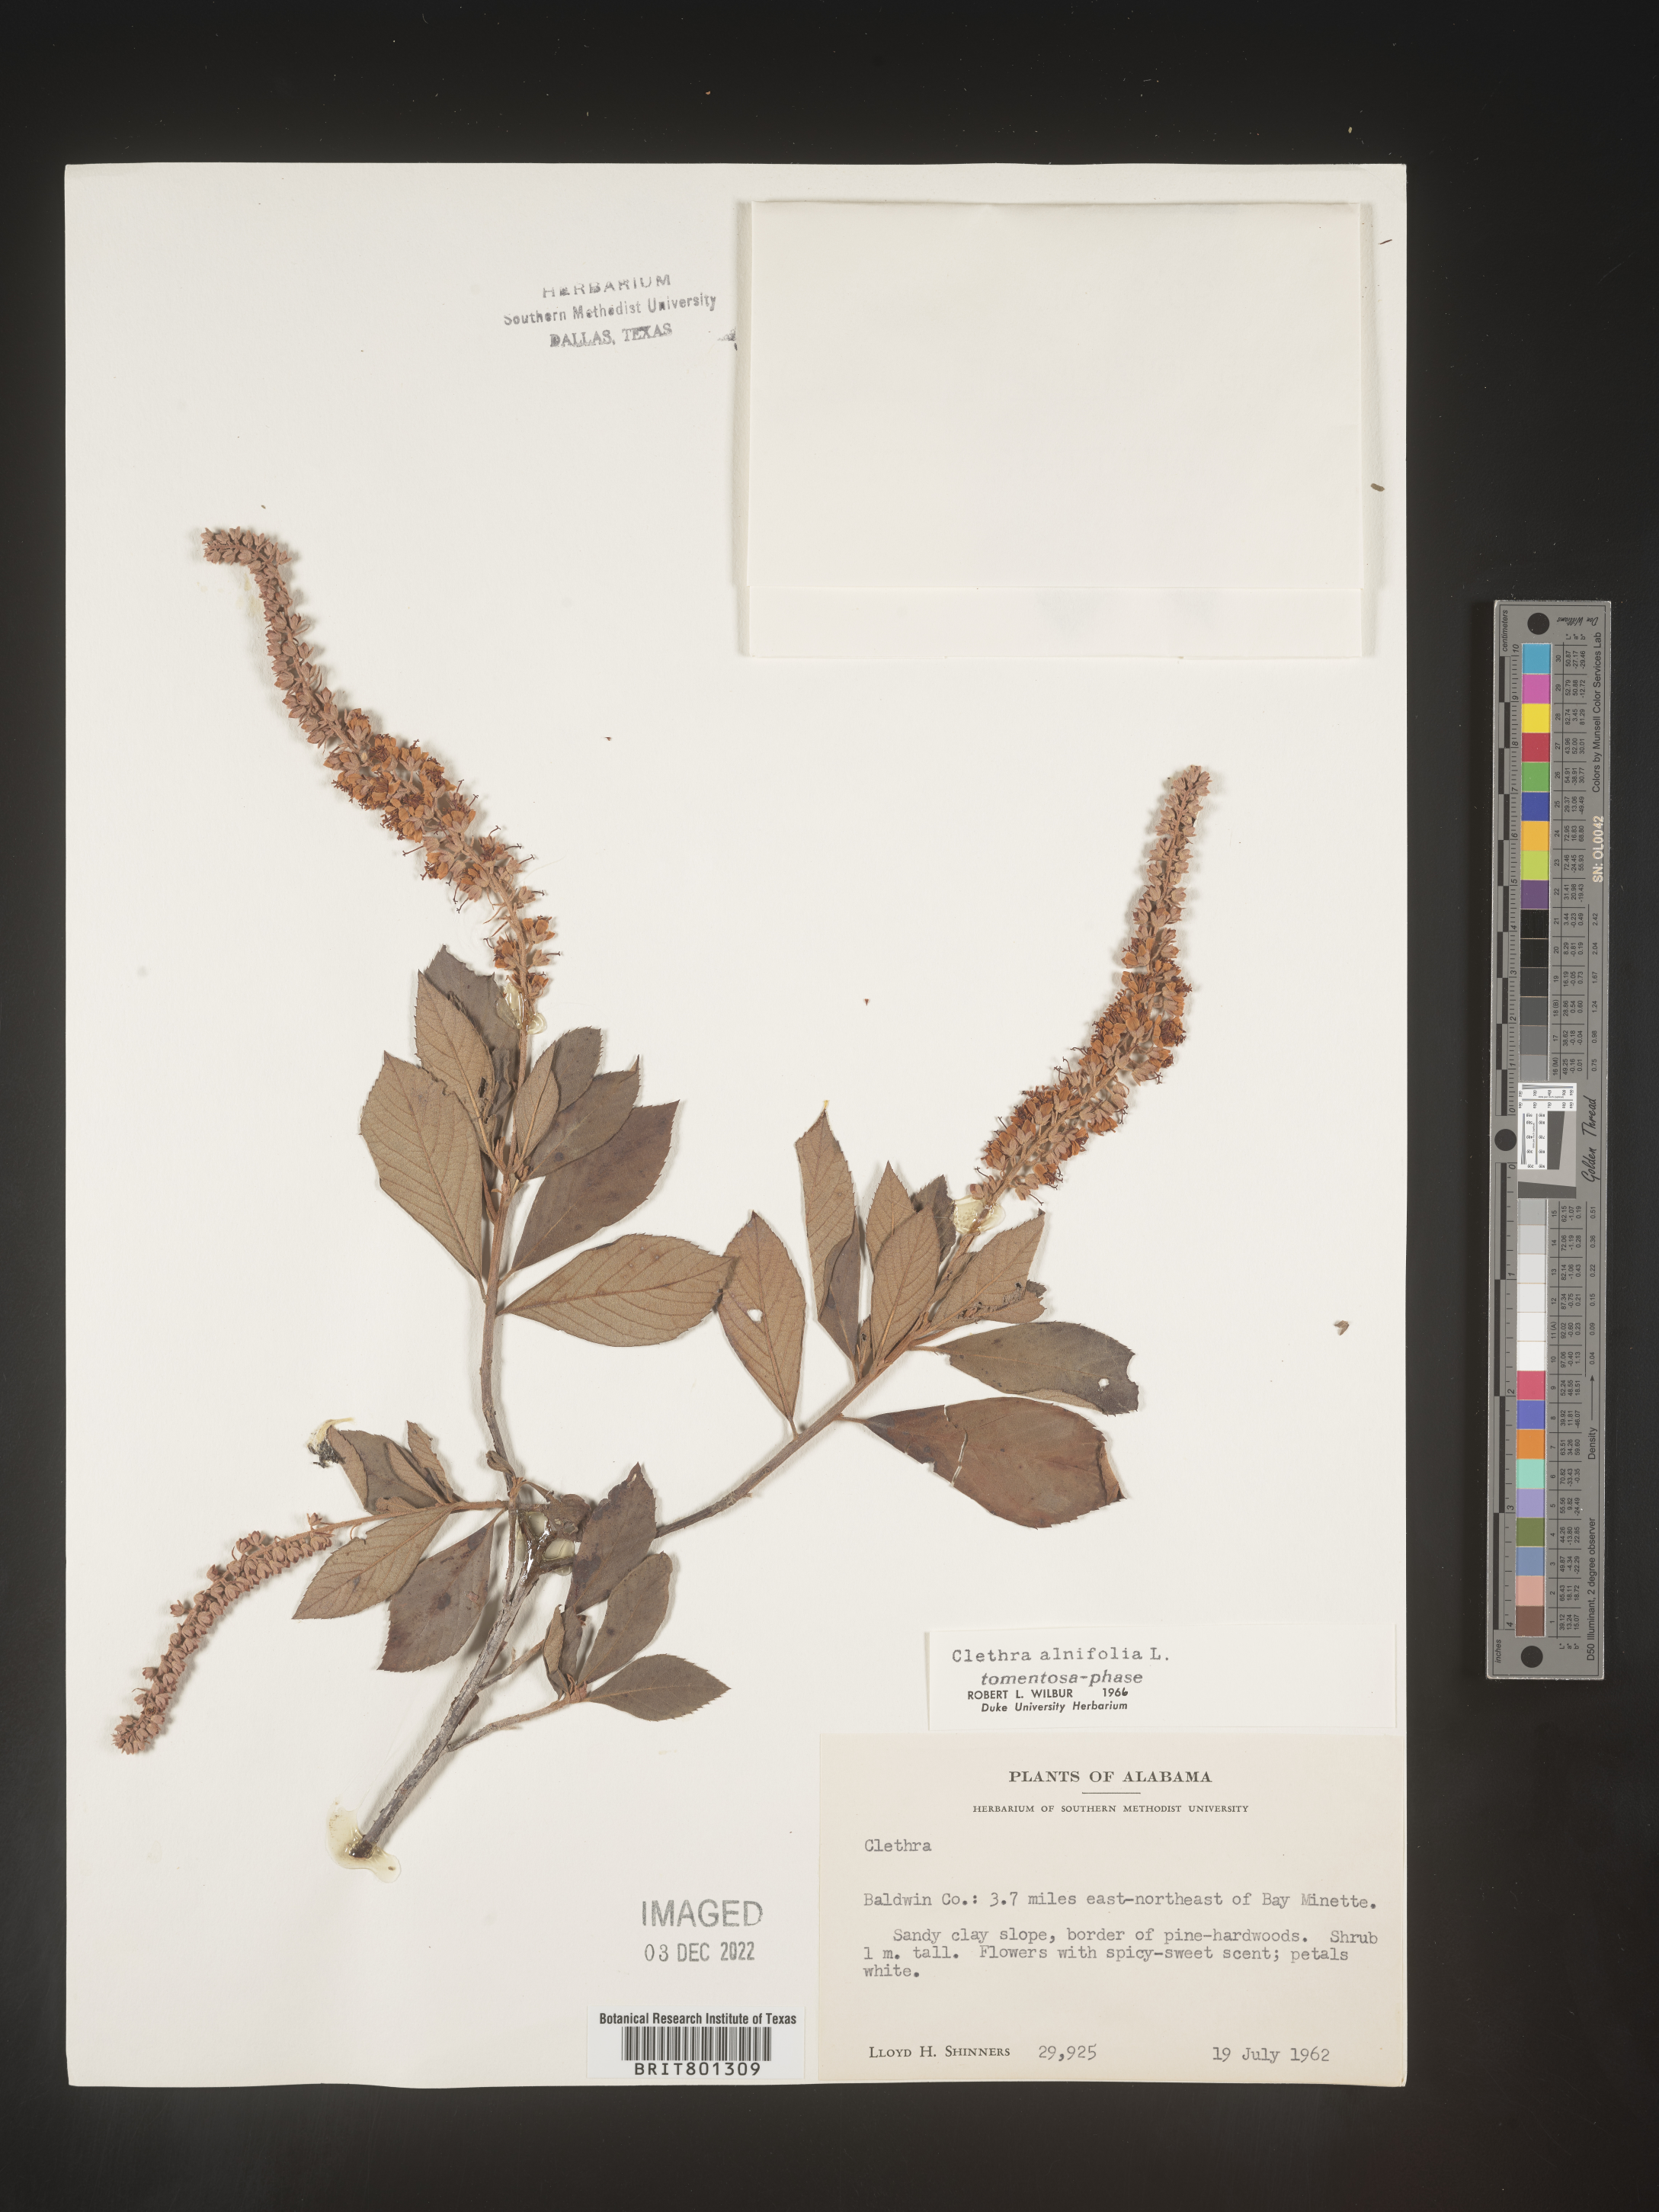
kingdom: Plantae
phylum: Tracheophyta
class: Magnoliopsida
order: Ericales
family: Clethraceae
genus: Clethra
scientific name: Clethra alnifolia
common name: Sweet pepperbush
